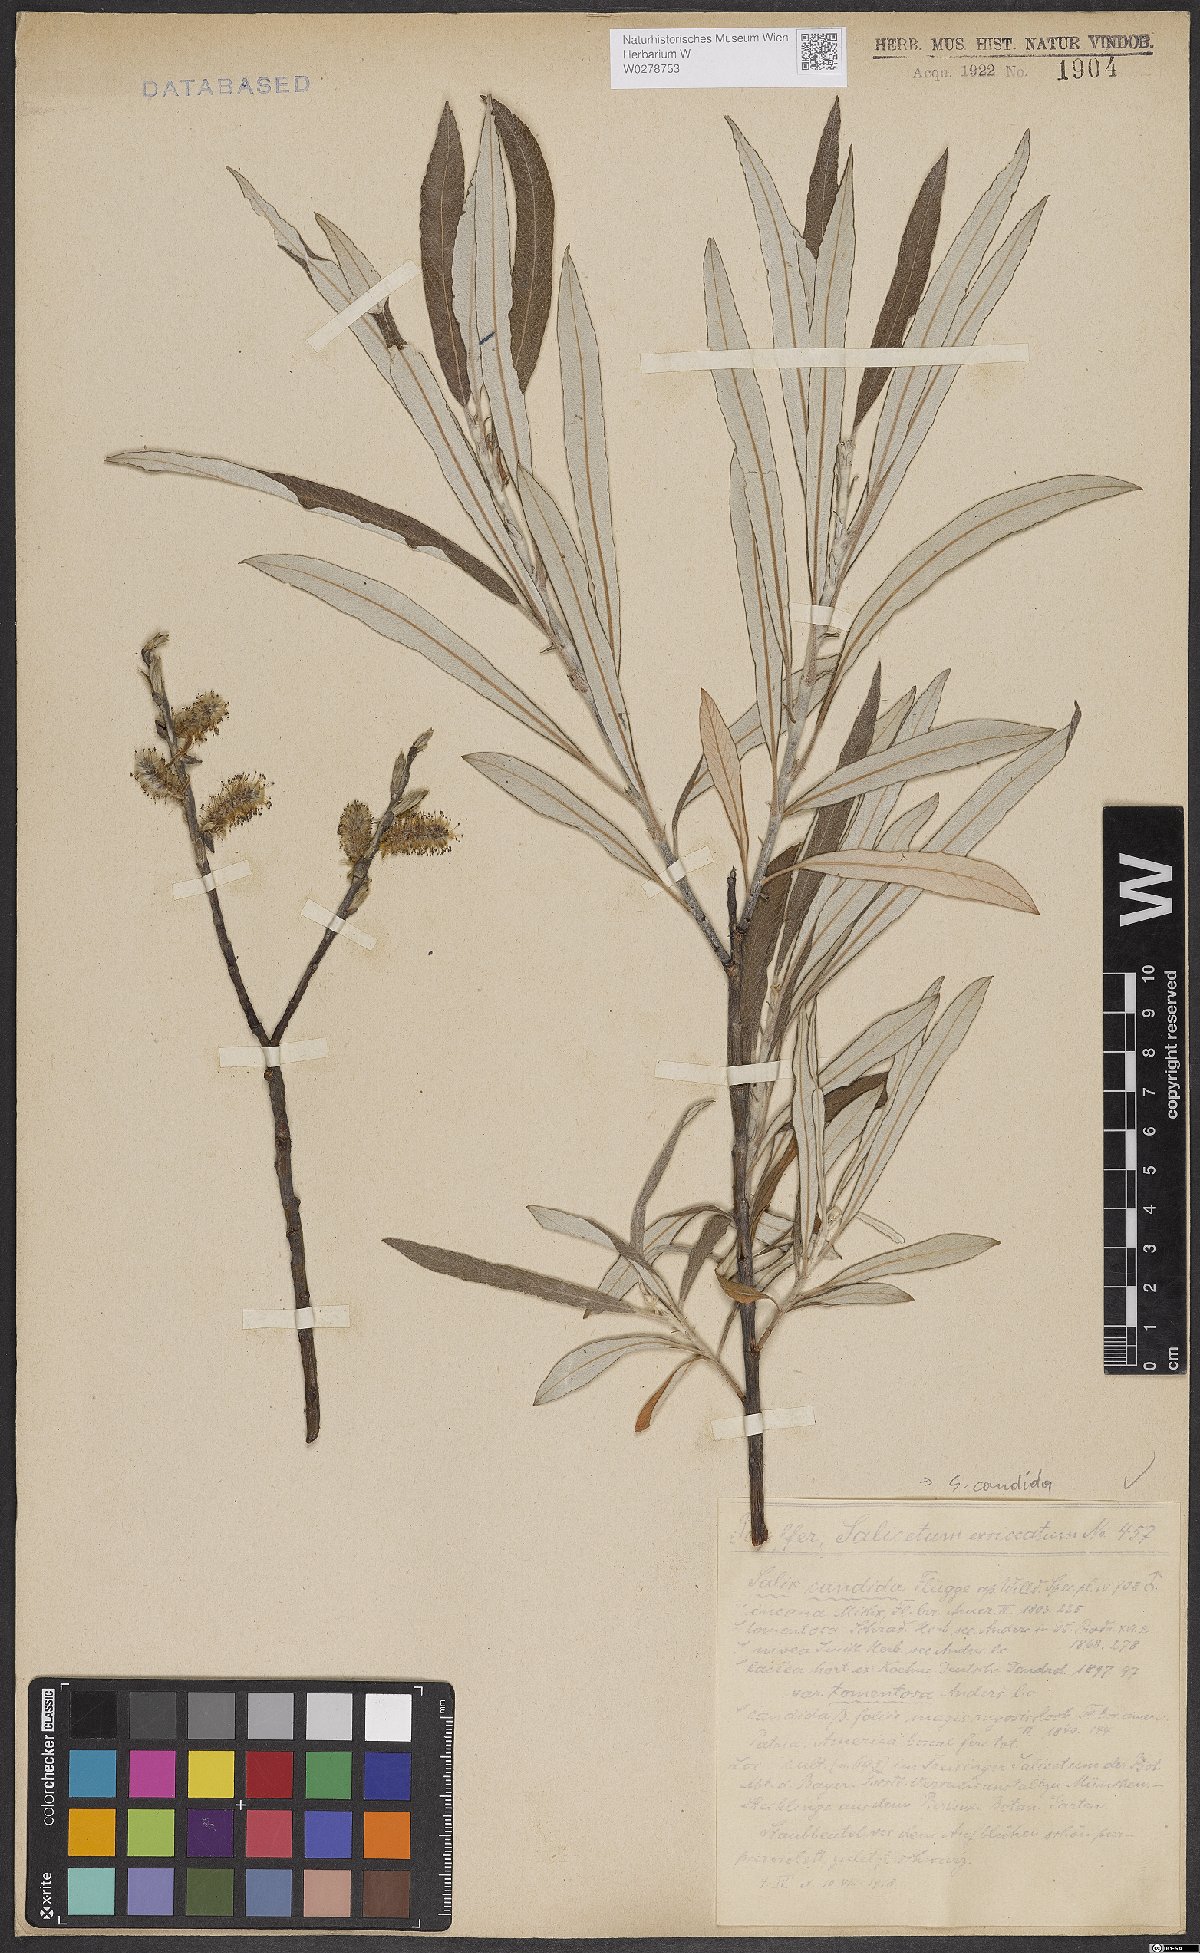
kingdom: Plantae
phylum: Tracheophyta
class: Magnoliopsida
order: Malpighiales
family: Salicaceae
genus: Salix
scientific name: Salix candida
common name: Hoary willow
